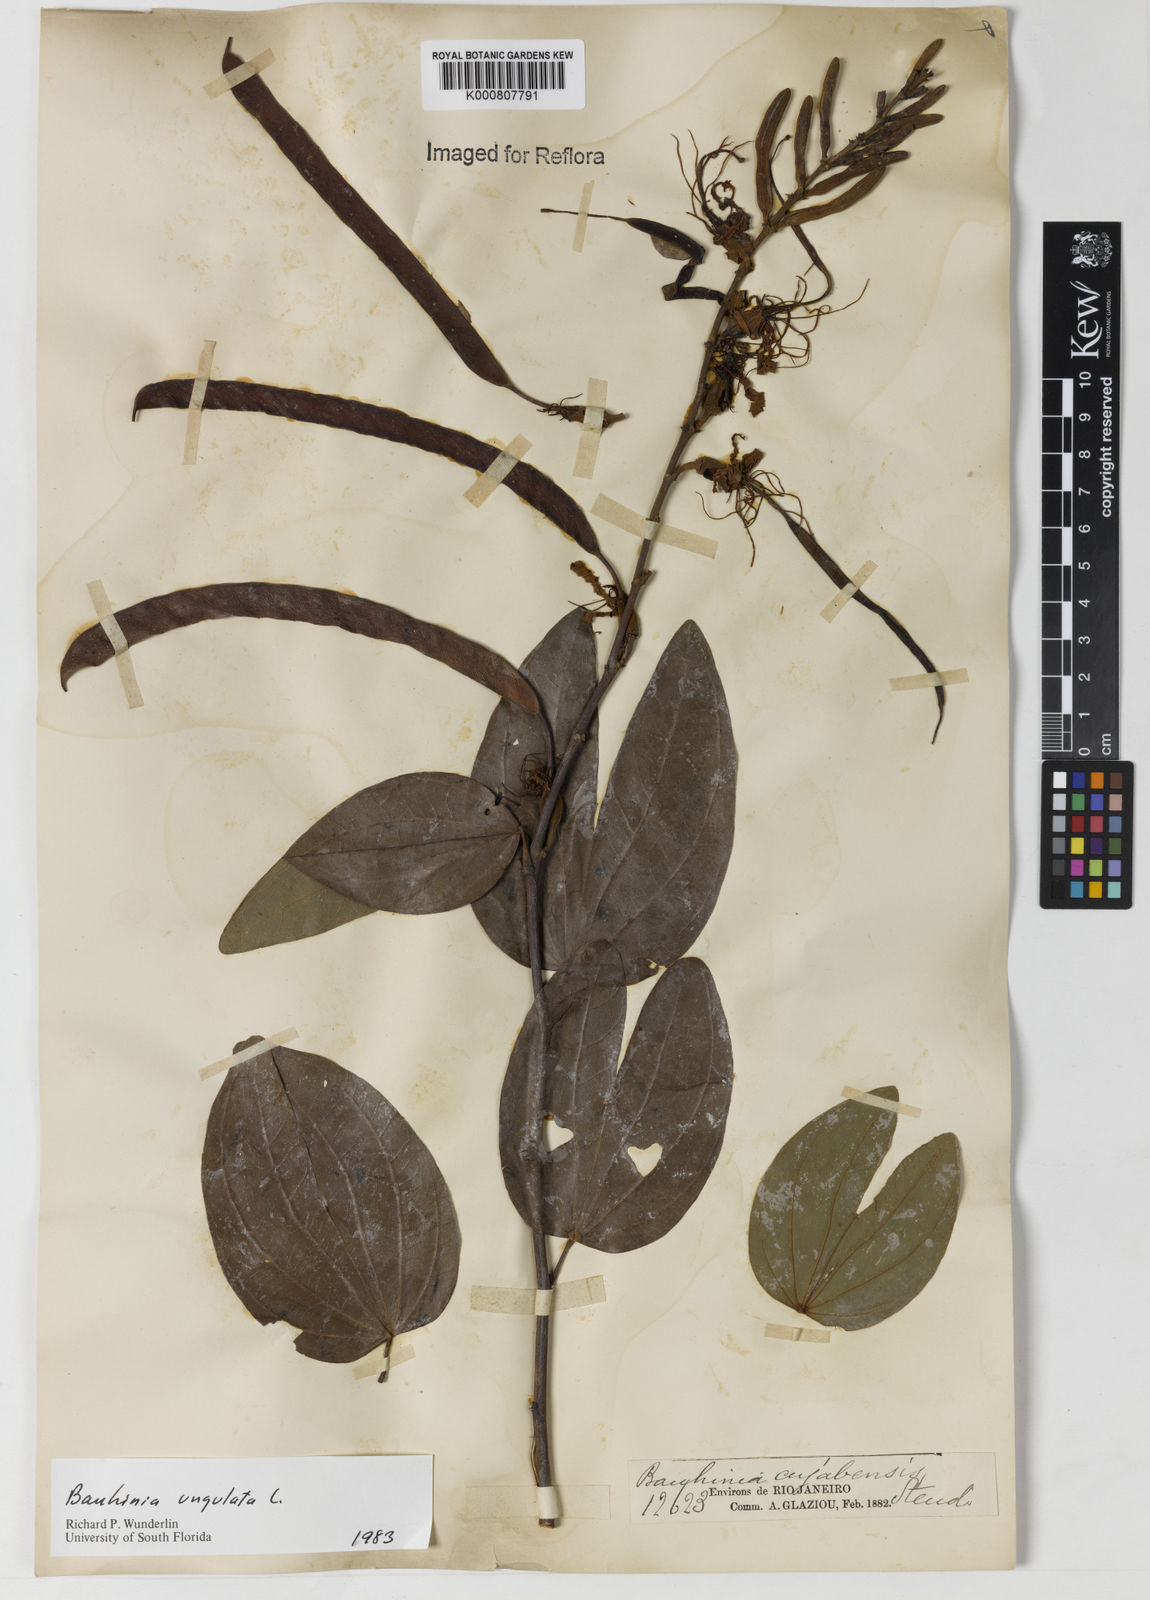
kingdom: Plantae
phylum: Tracheophyta
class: Magnoliopsida
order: Fabales
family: Fabaceae
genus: Bauhinia
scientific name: Bauhinia ungulata
